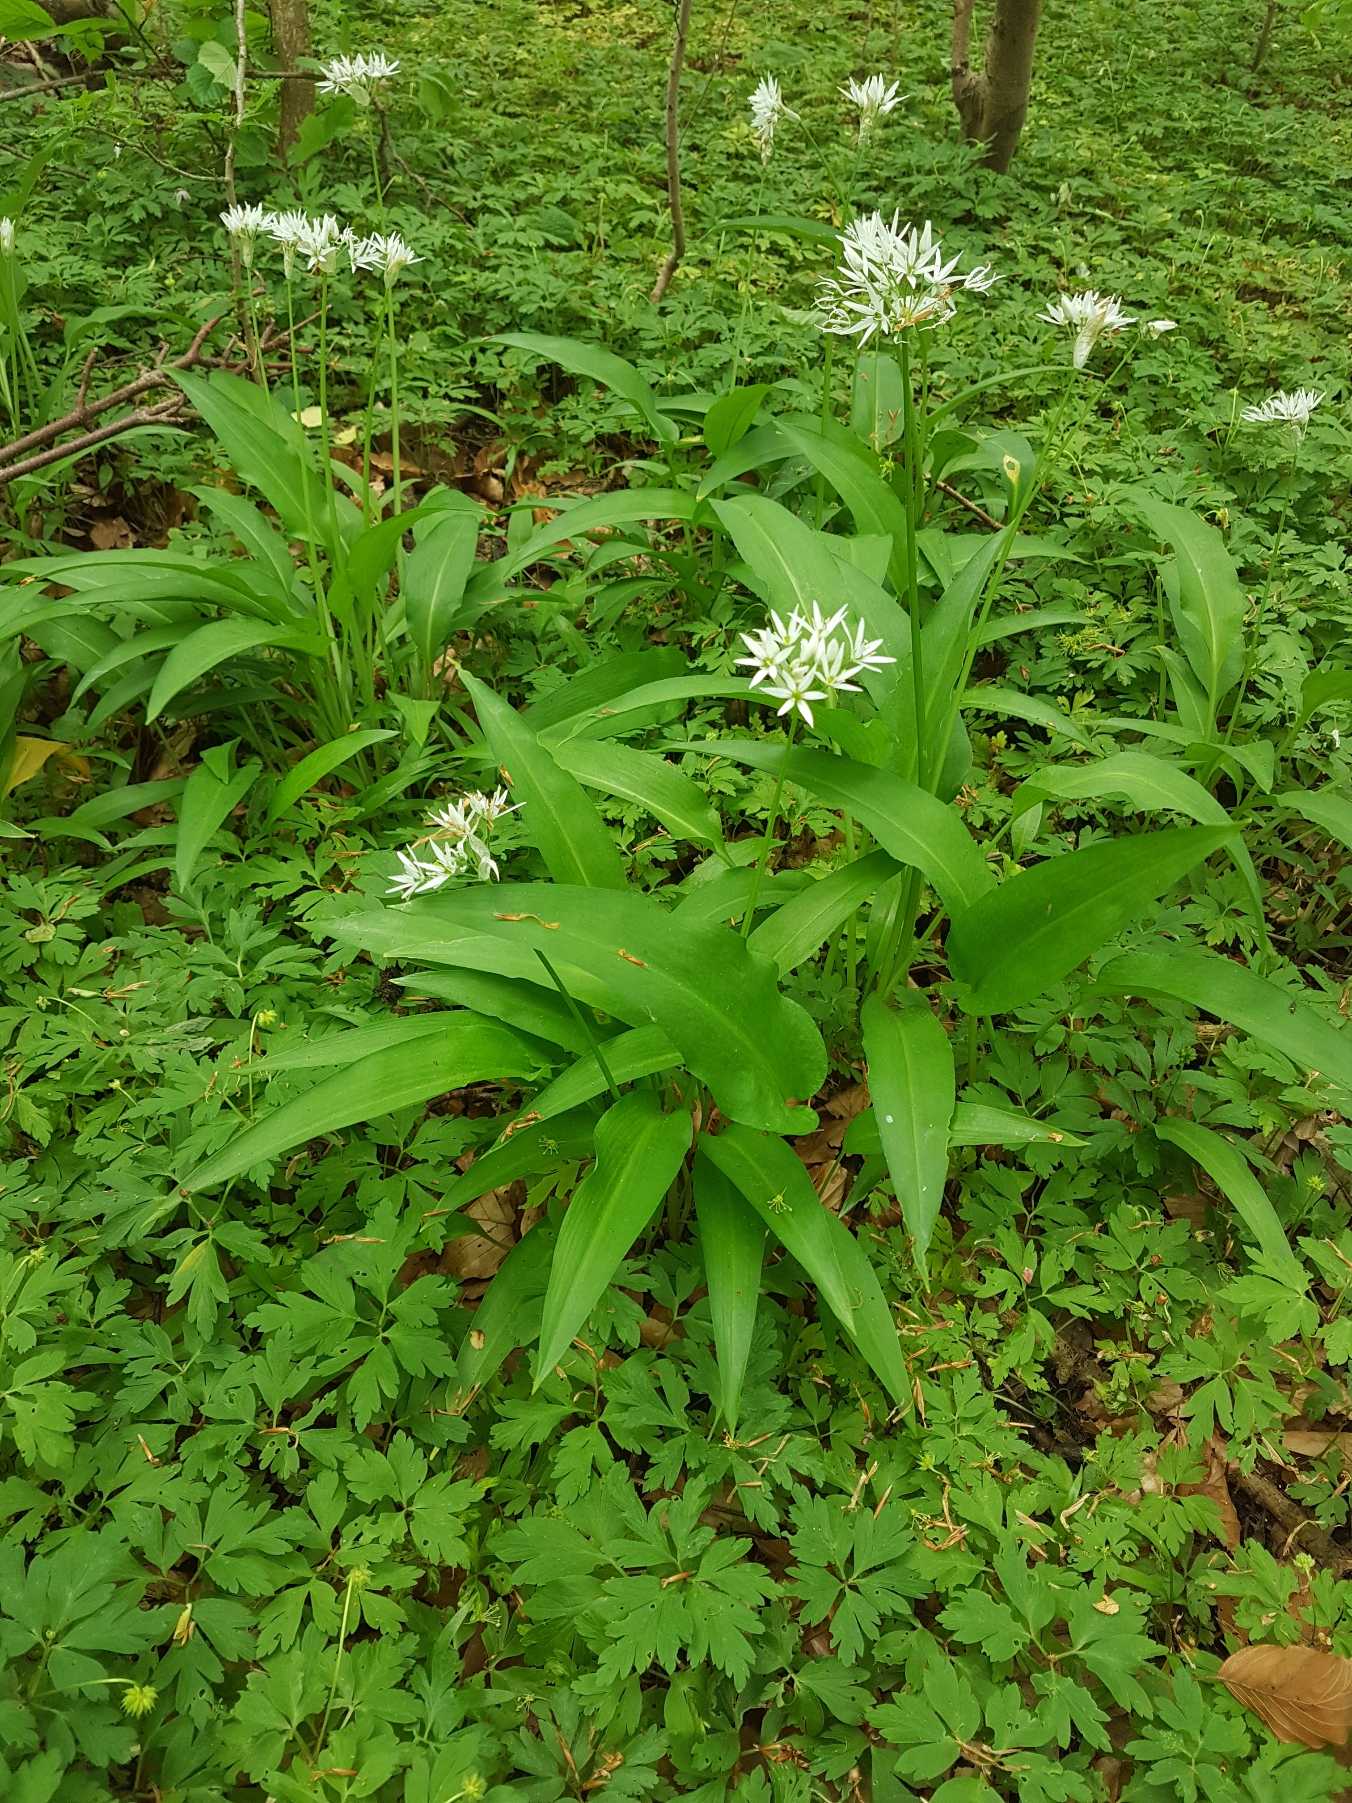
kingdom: Plantae
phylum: Tracheophyta
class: Liliopsida
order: Asparagales
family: Amaryllidaceae
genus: Allium
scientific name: Allium ursinum
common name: Rams-løg
